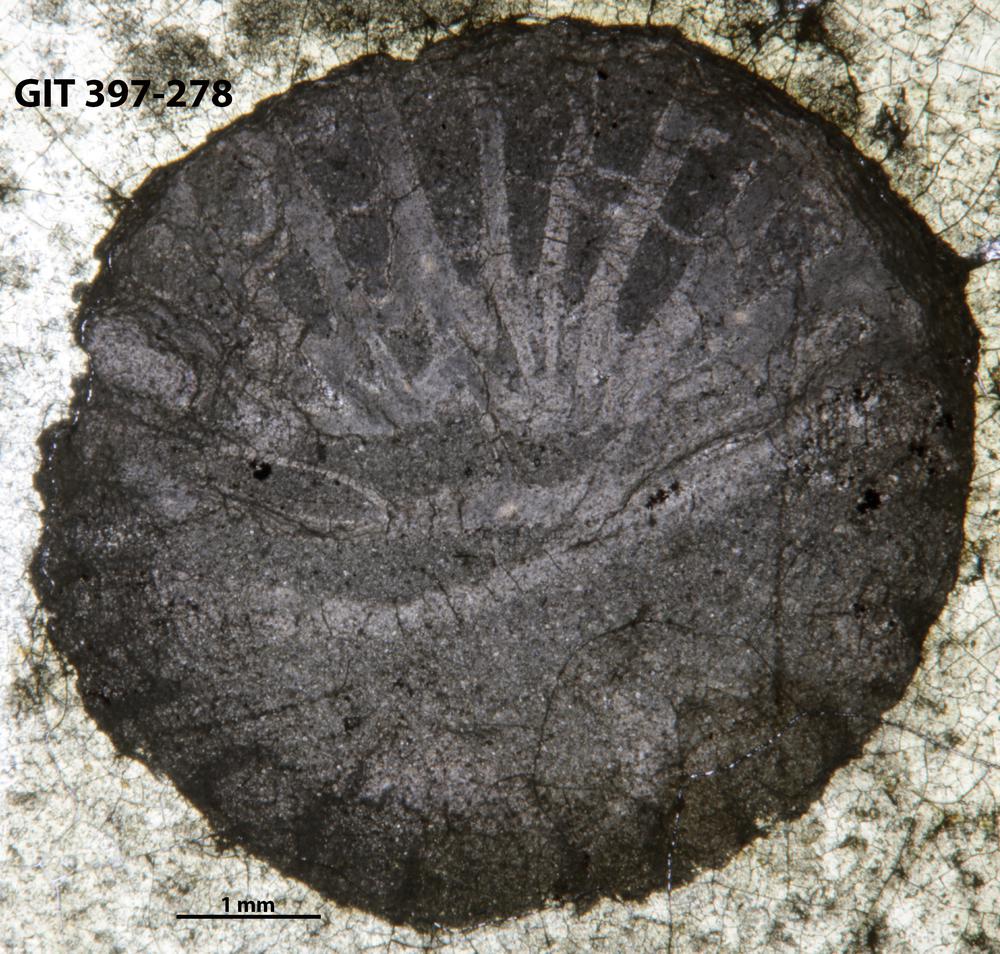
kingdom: Animalia
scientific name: Animalia
